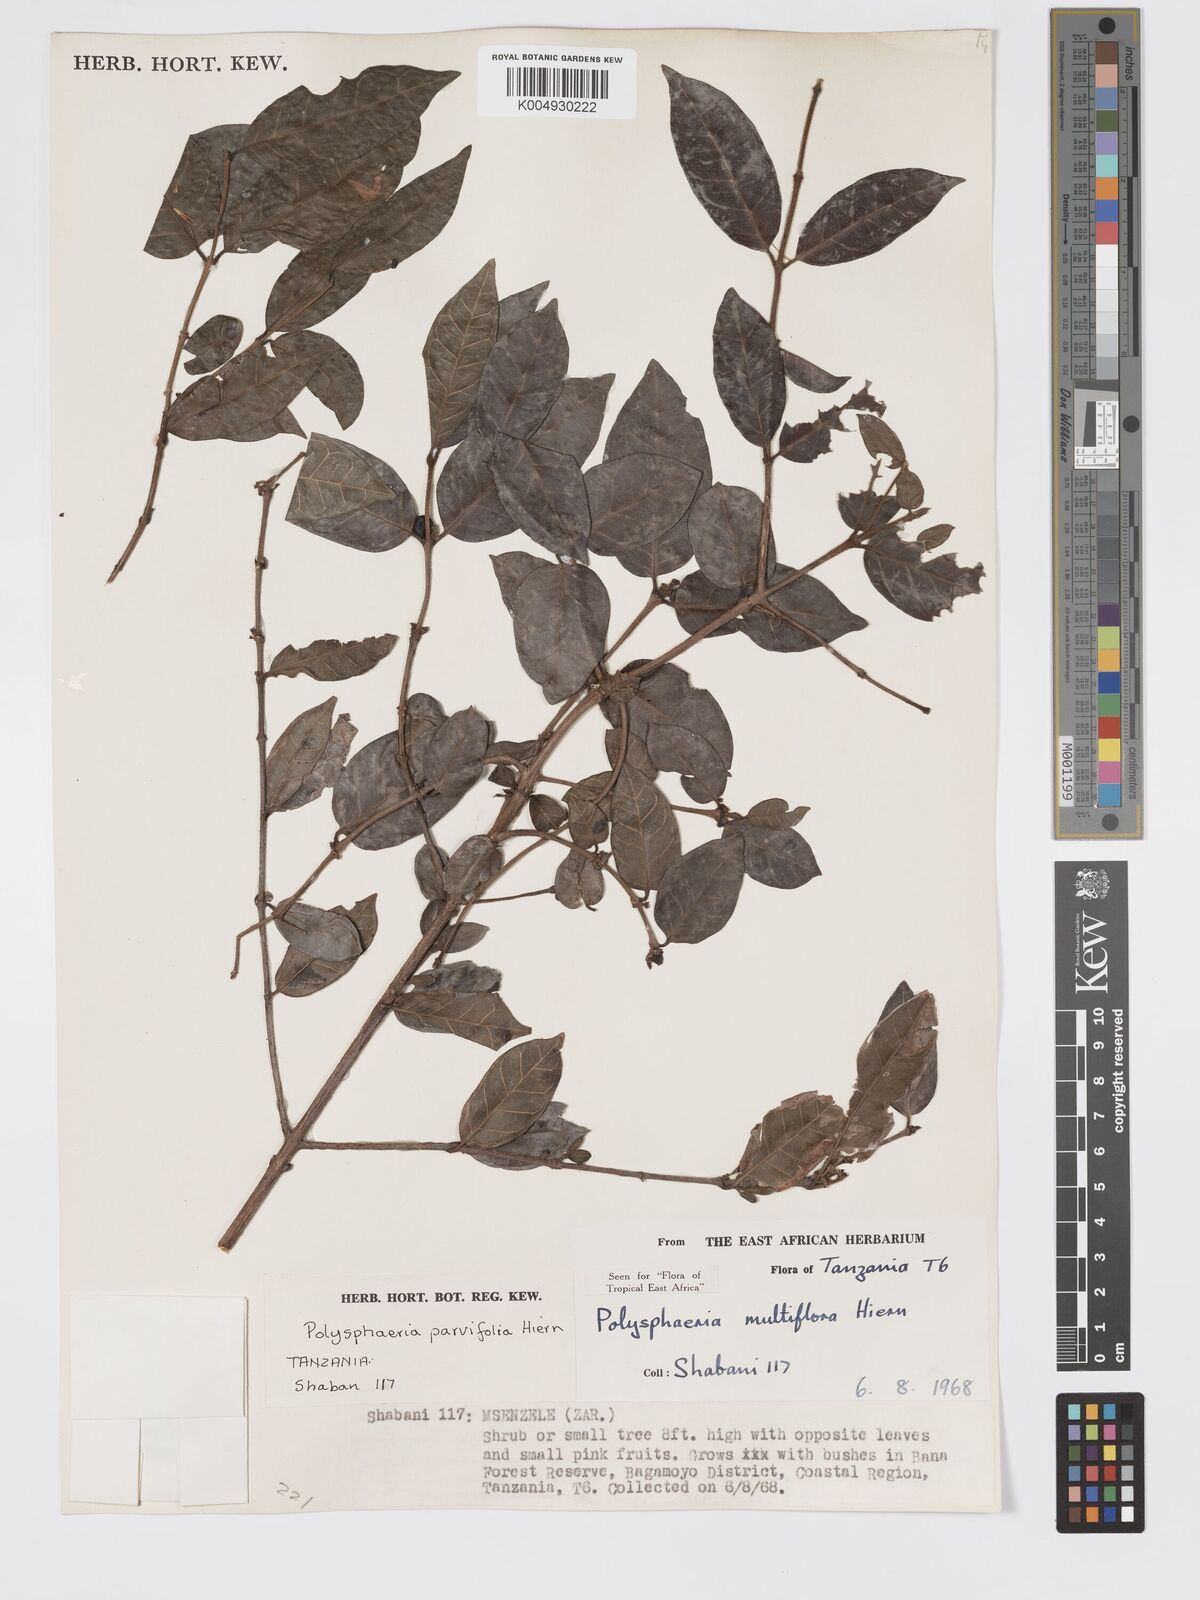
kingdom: Plantae
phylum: Tracheophyta
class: Magnoliopsida
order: Gentianales
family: Rubiaceae
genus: Polysphaeria
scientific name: Polysphaeria parvifolia
